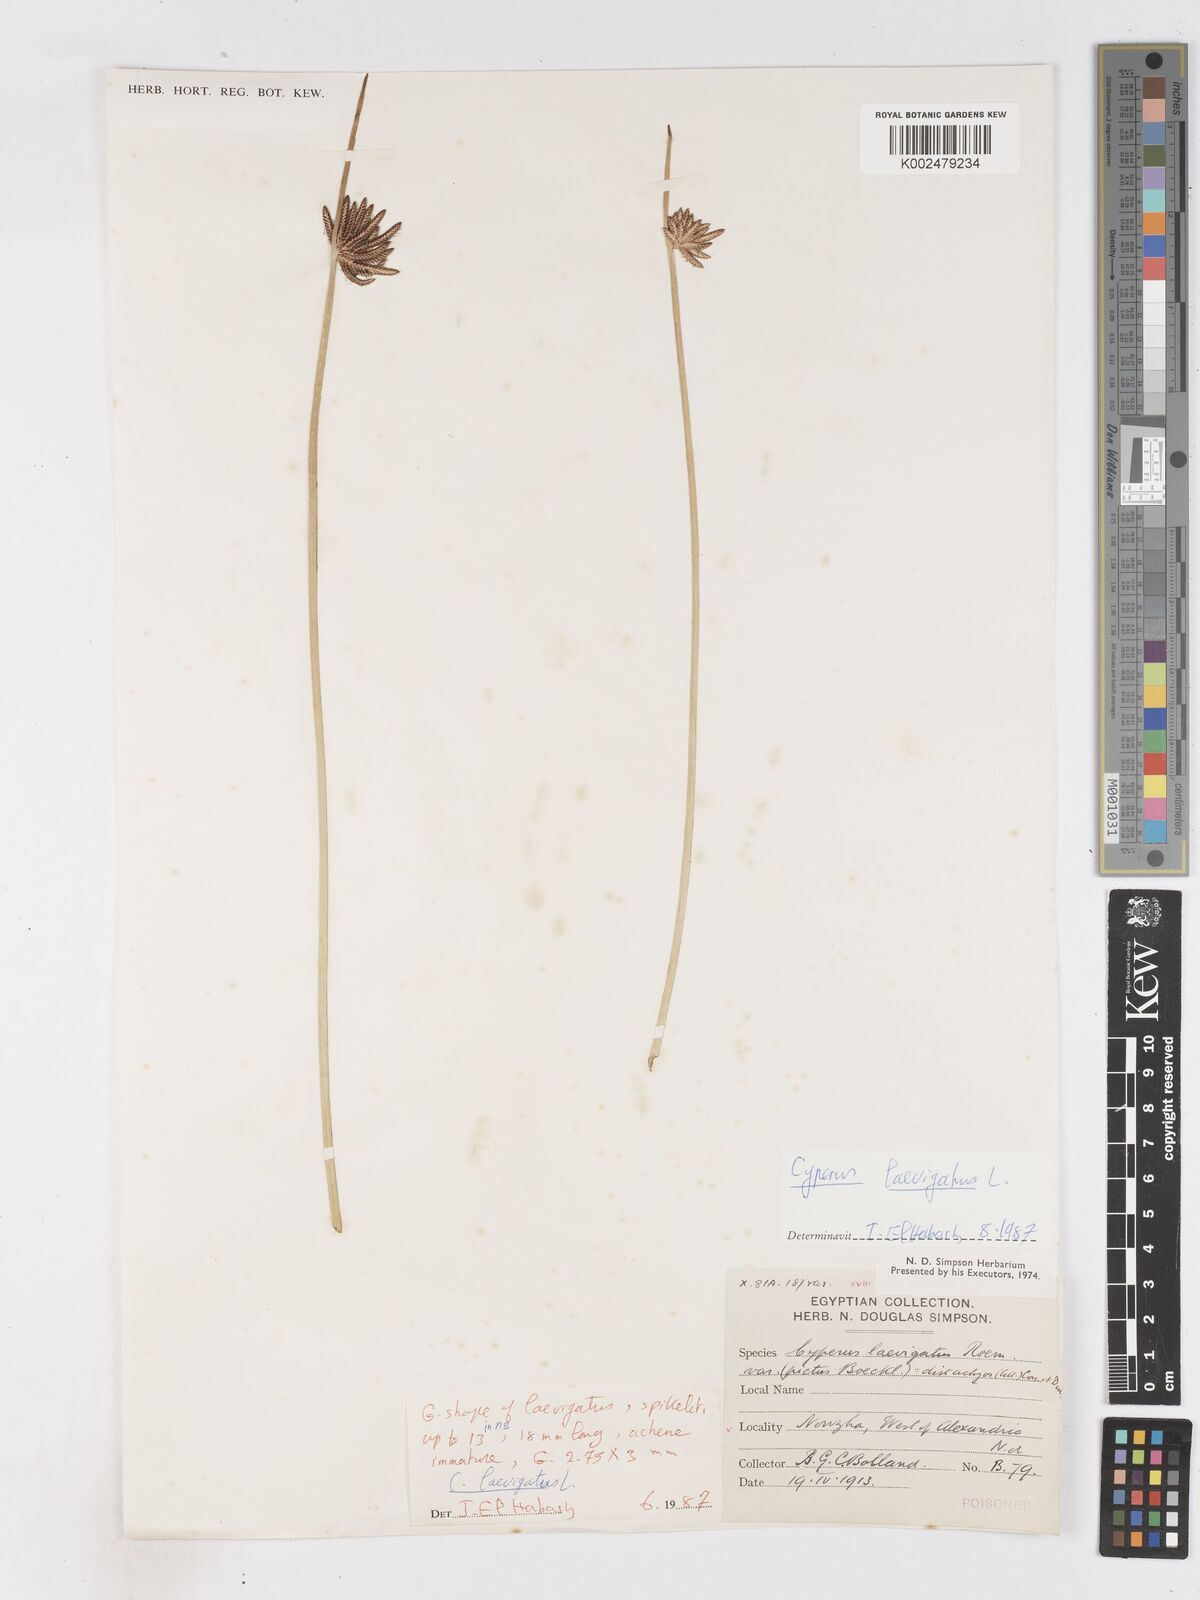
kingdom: Plantae
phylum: Tracheophyta
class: Liliopsida
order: Poales
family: Cyperaceae
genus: Cyperus
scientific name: Cyperus laevigatus
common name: Smooth flat sedge
